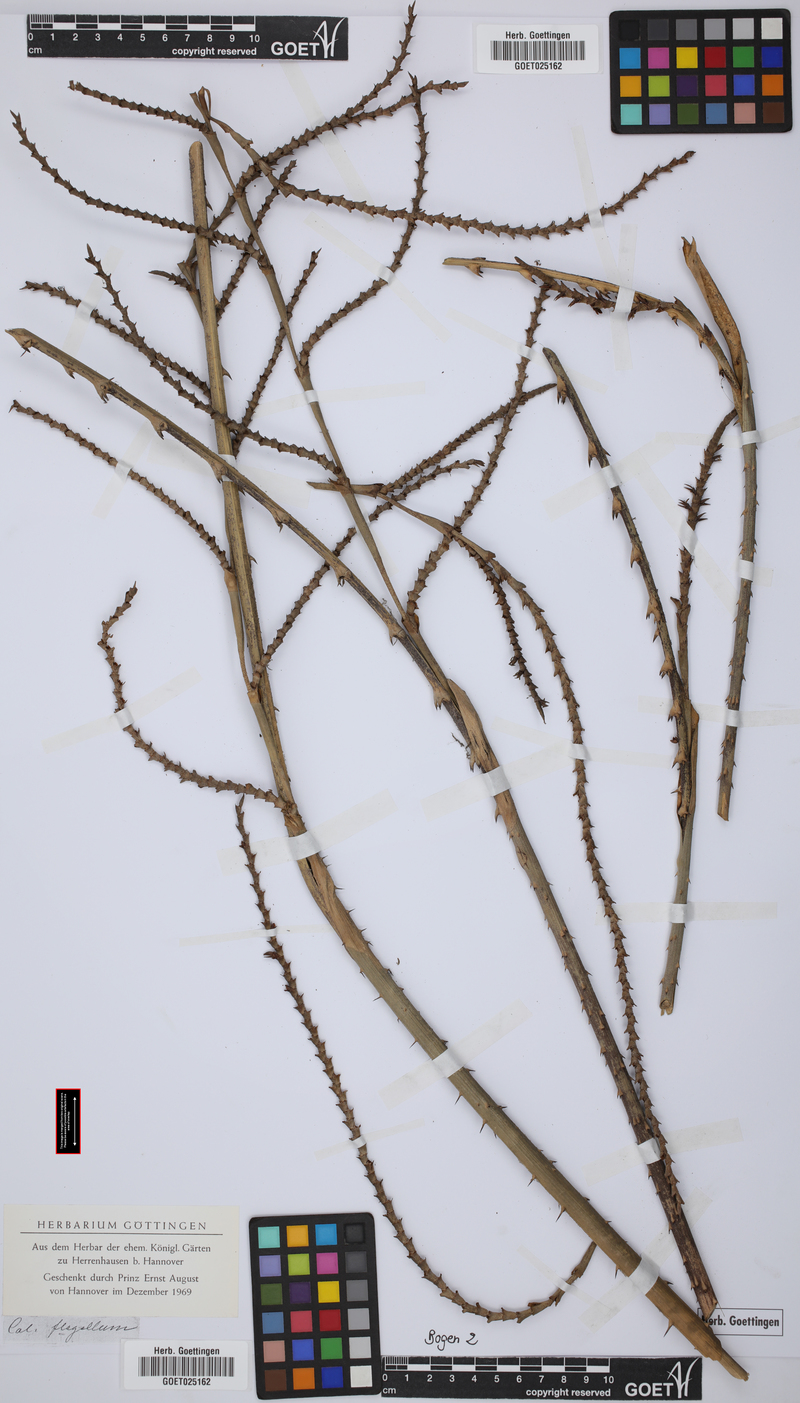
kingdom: Plantae
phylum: Tracheophyta
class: Liliopsida
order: Arecales
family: Arecaceae
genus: Calamus
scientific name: Calamus flagellum
